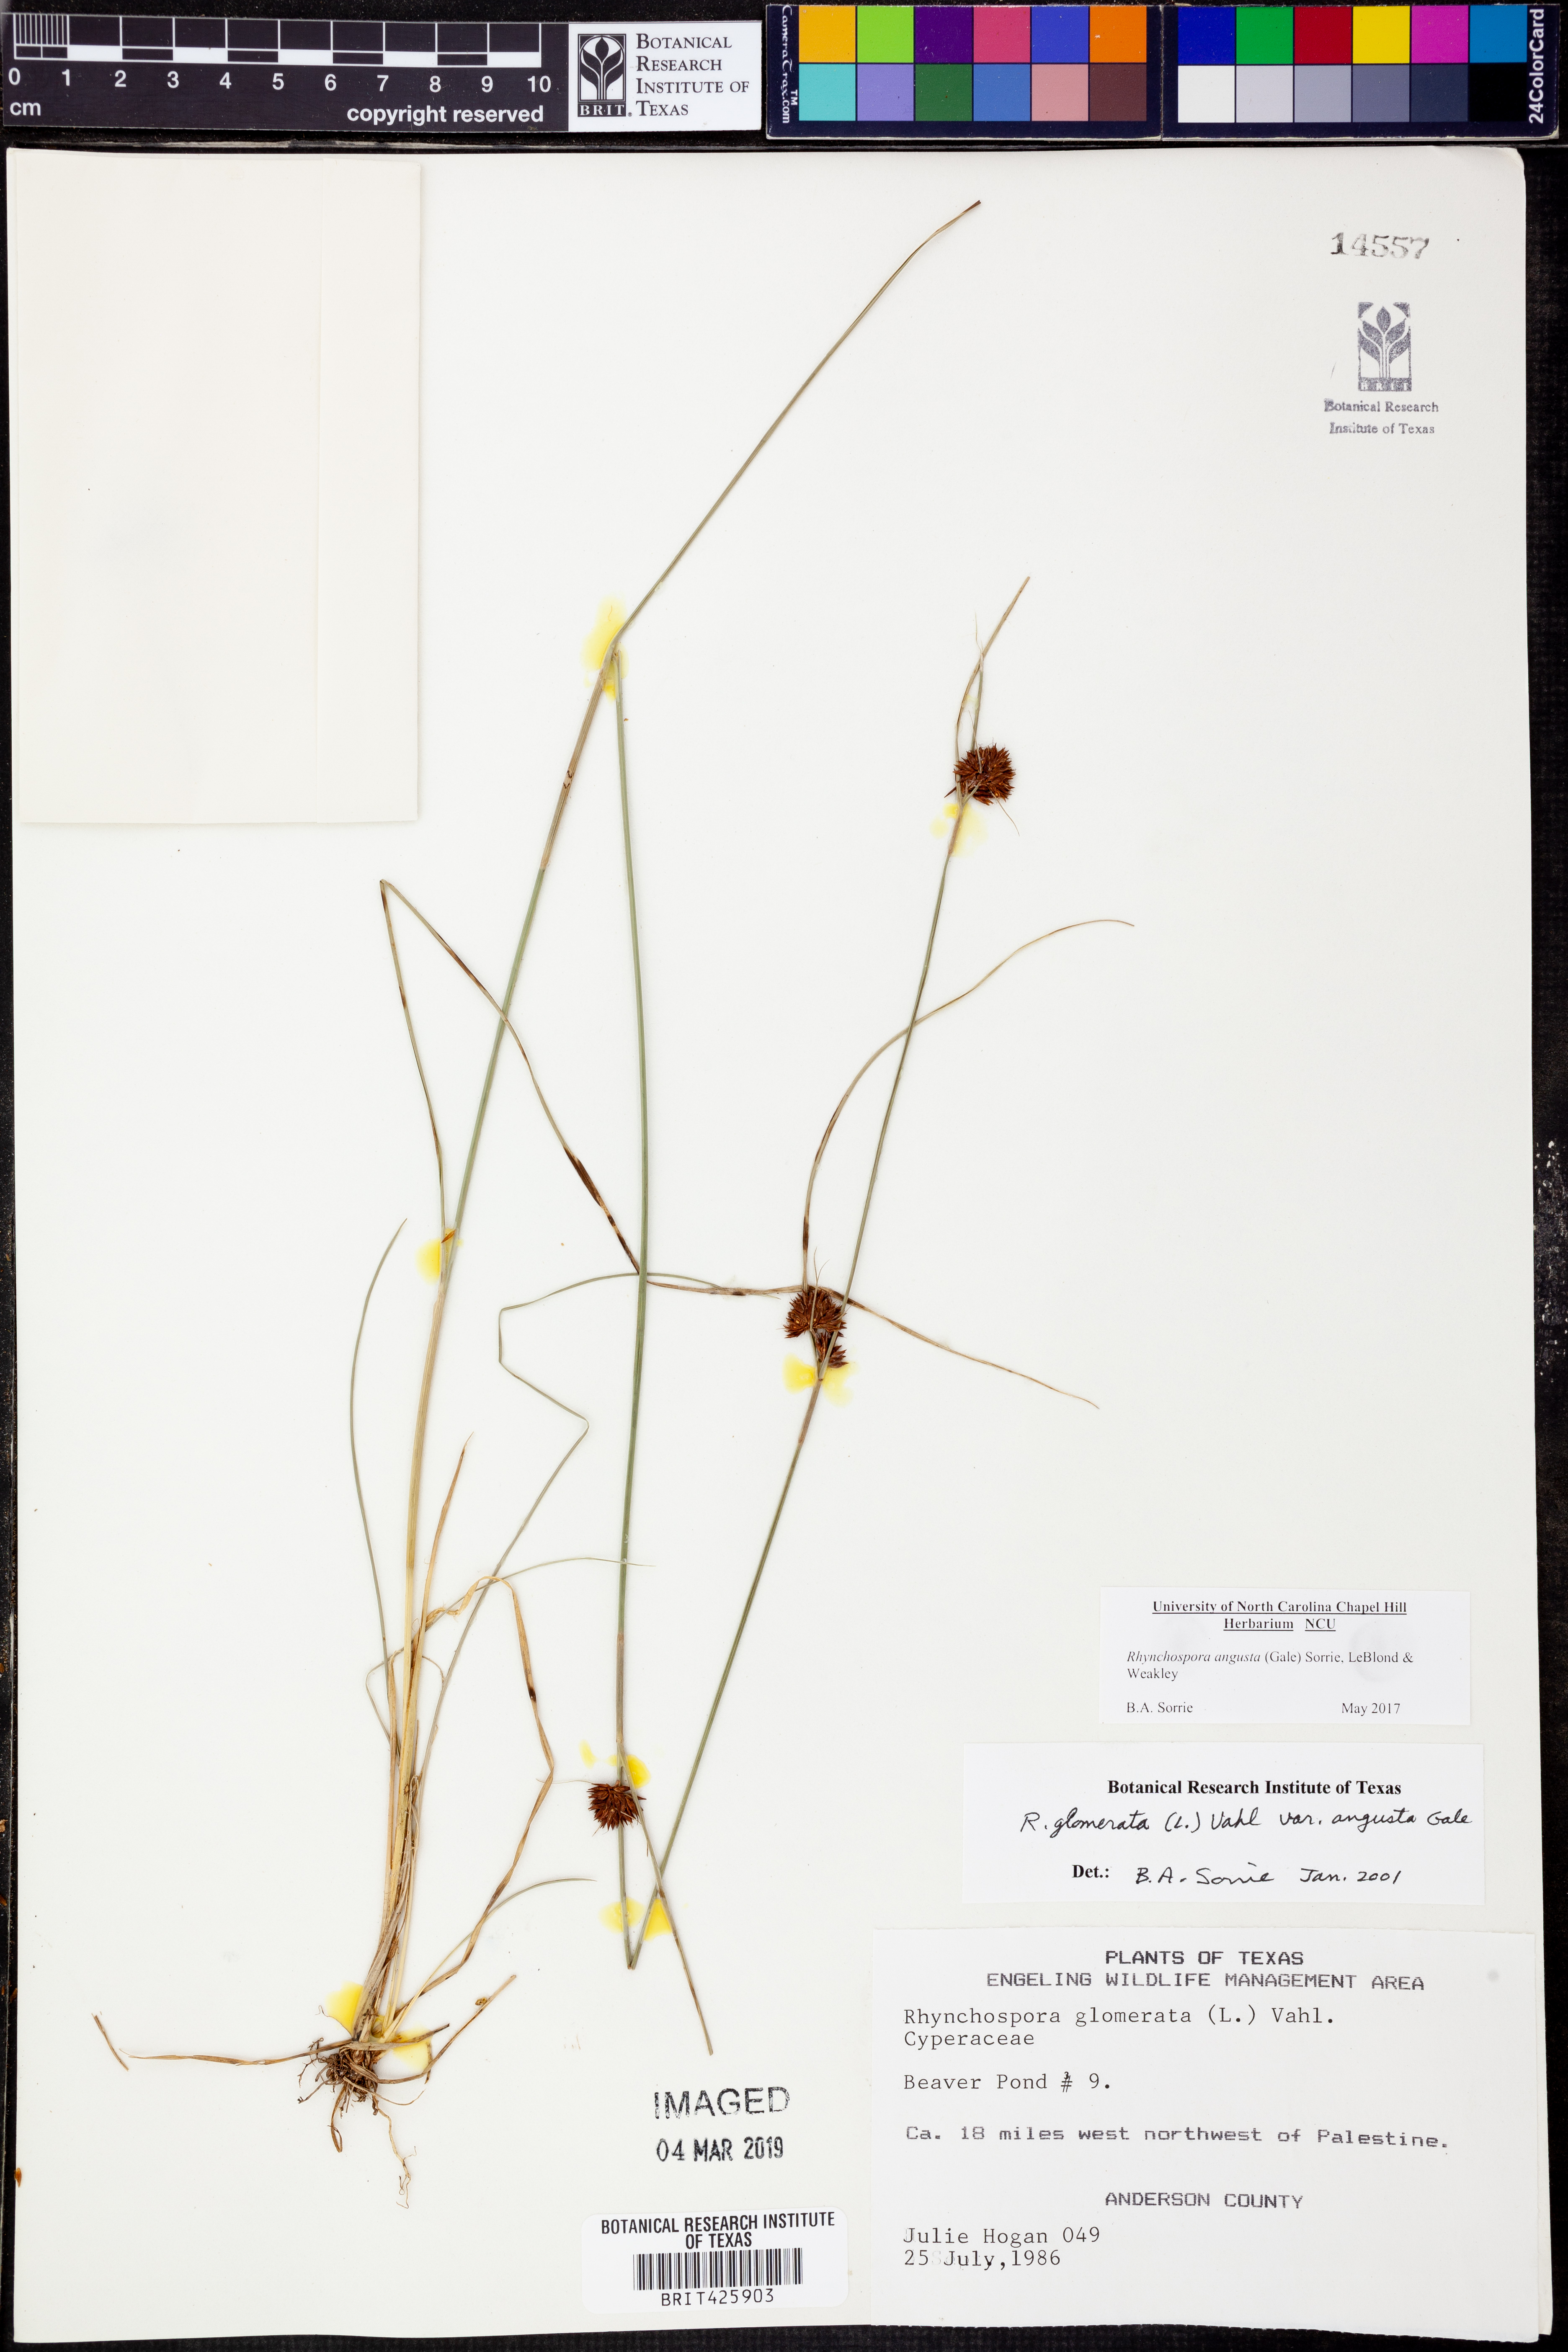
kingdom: Plantae
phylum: Tracheophyta
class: Liliopsida
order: Poales
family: Cyperaceae
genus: Rhynchospora
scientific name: Rhynchospora angusta
